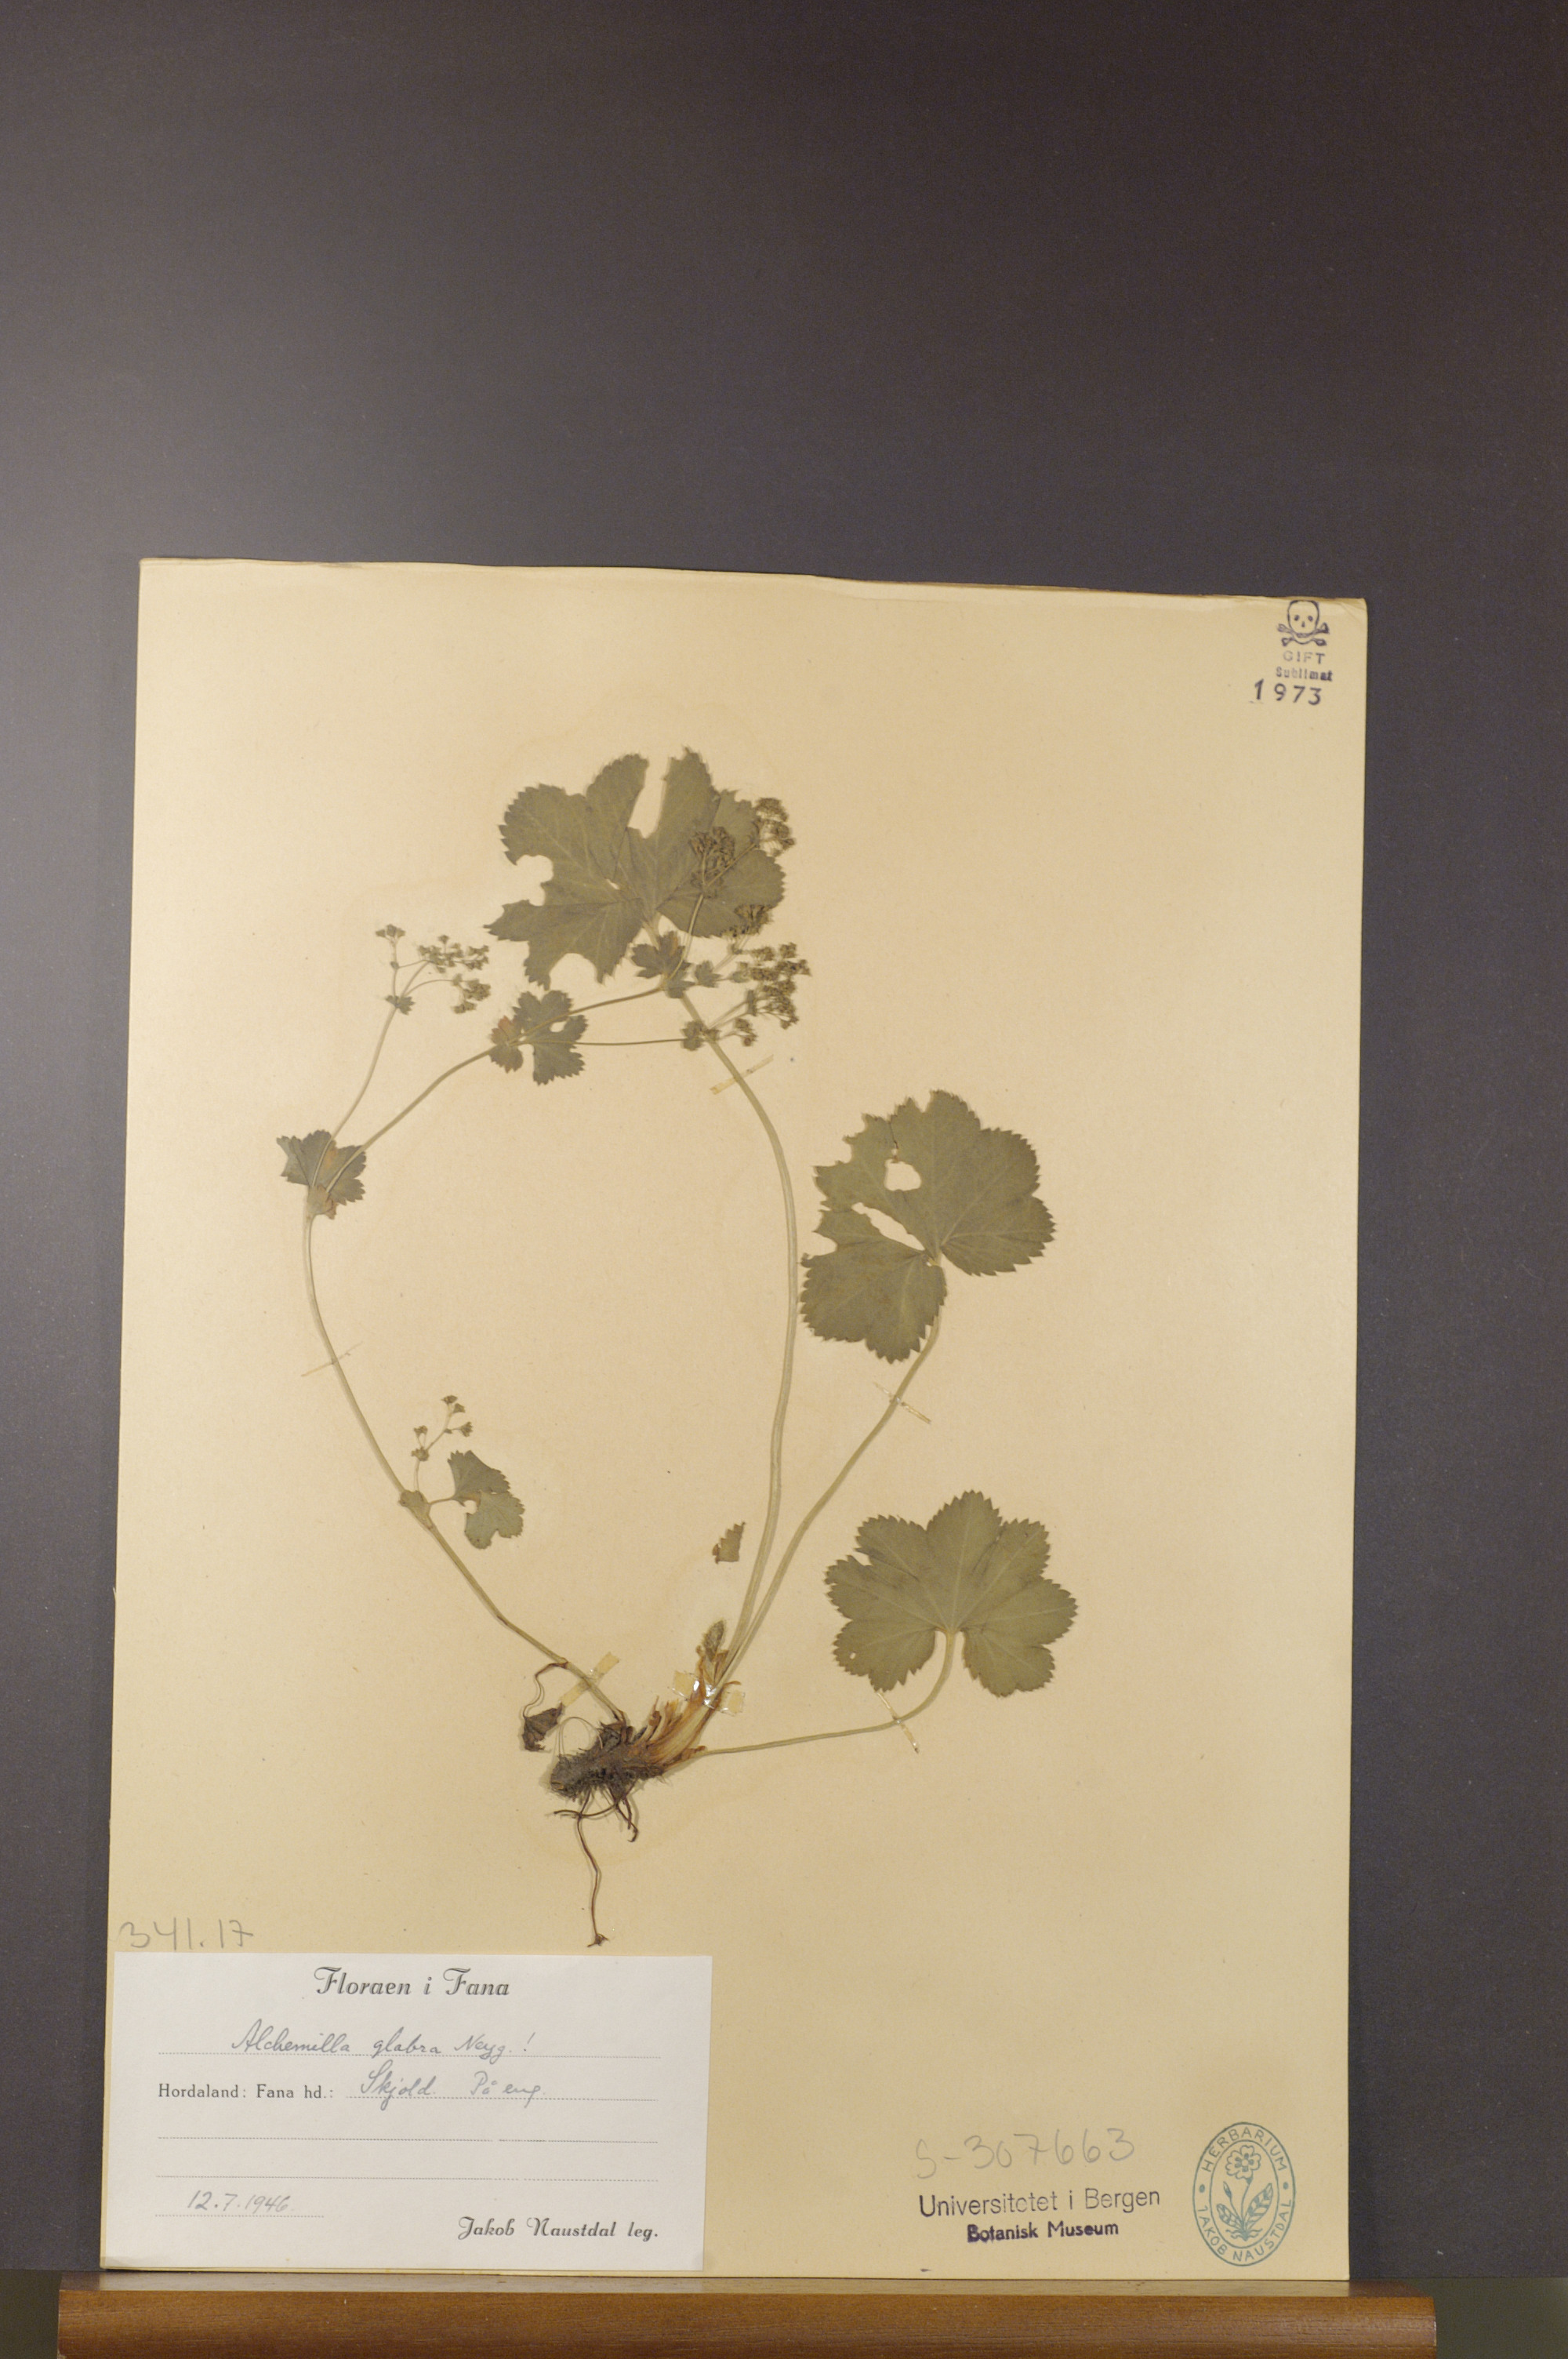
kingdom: Plantae
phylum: Tracheophyta
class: Magnoliopsida
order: Rosales
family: Rosaceae
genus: Alchemilla
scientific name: Alchemilla glabra
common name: Smooth lady's-mantle
